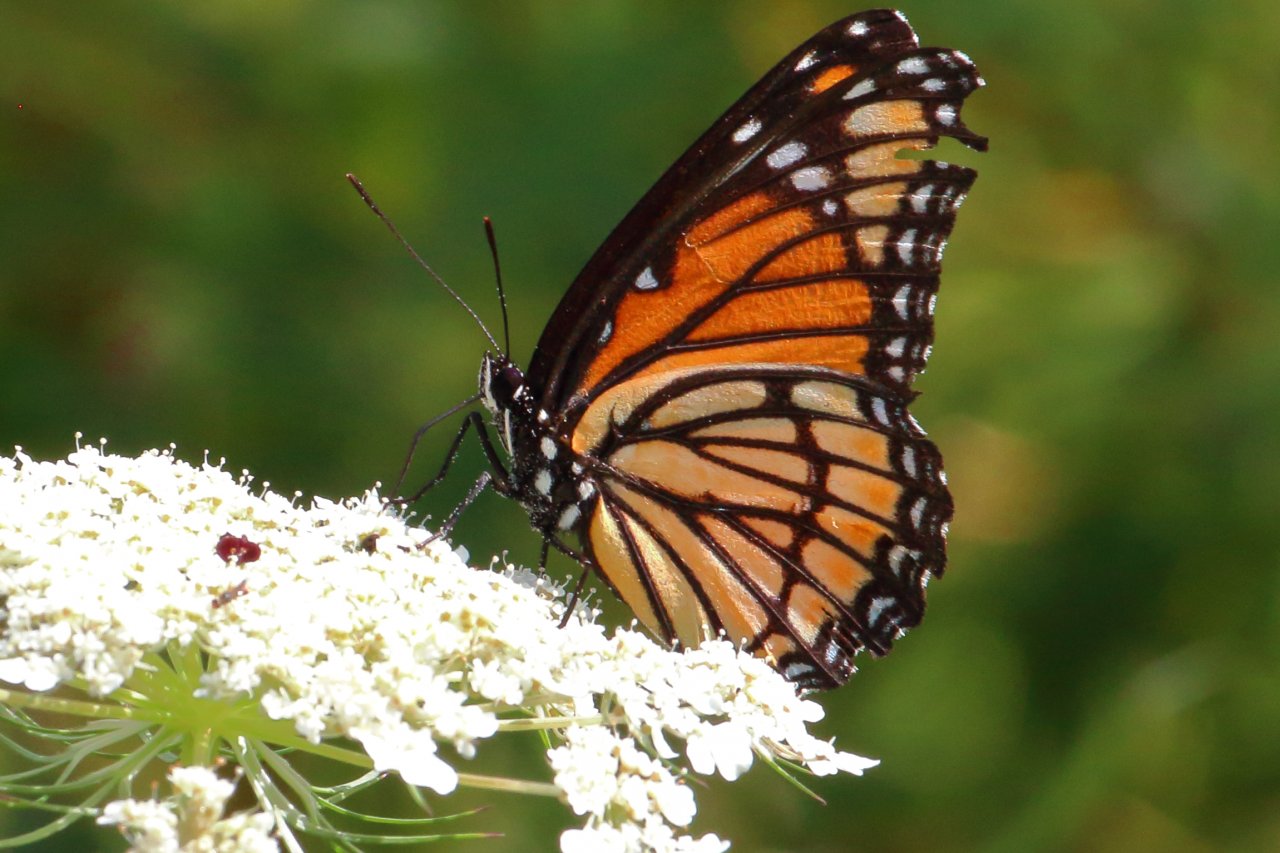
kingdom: Animalia
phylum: Arthropoda
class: Insecta
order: Lepidoptera
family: Nymphalidae
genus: Limenitis
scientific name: Limenitis archippus
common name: Viceroy
